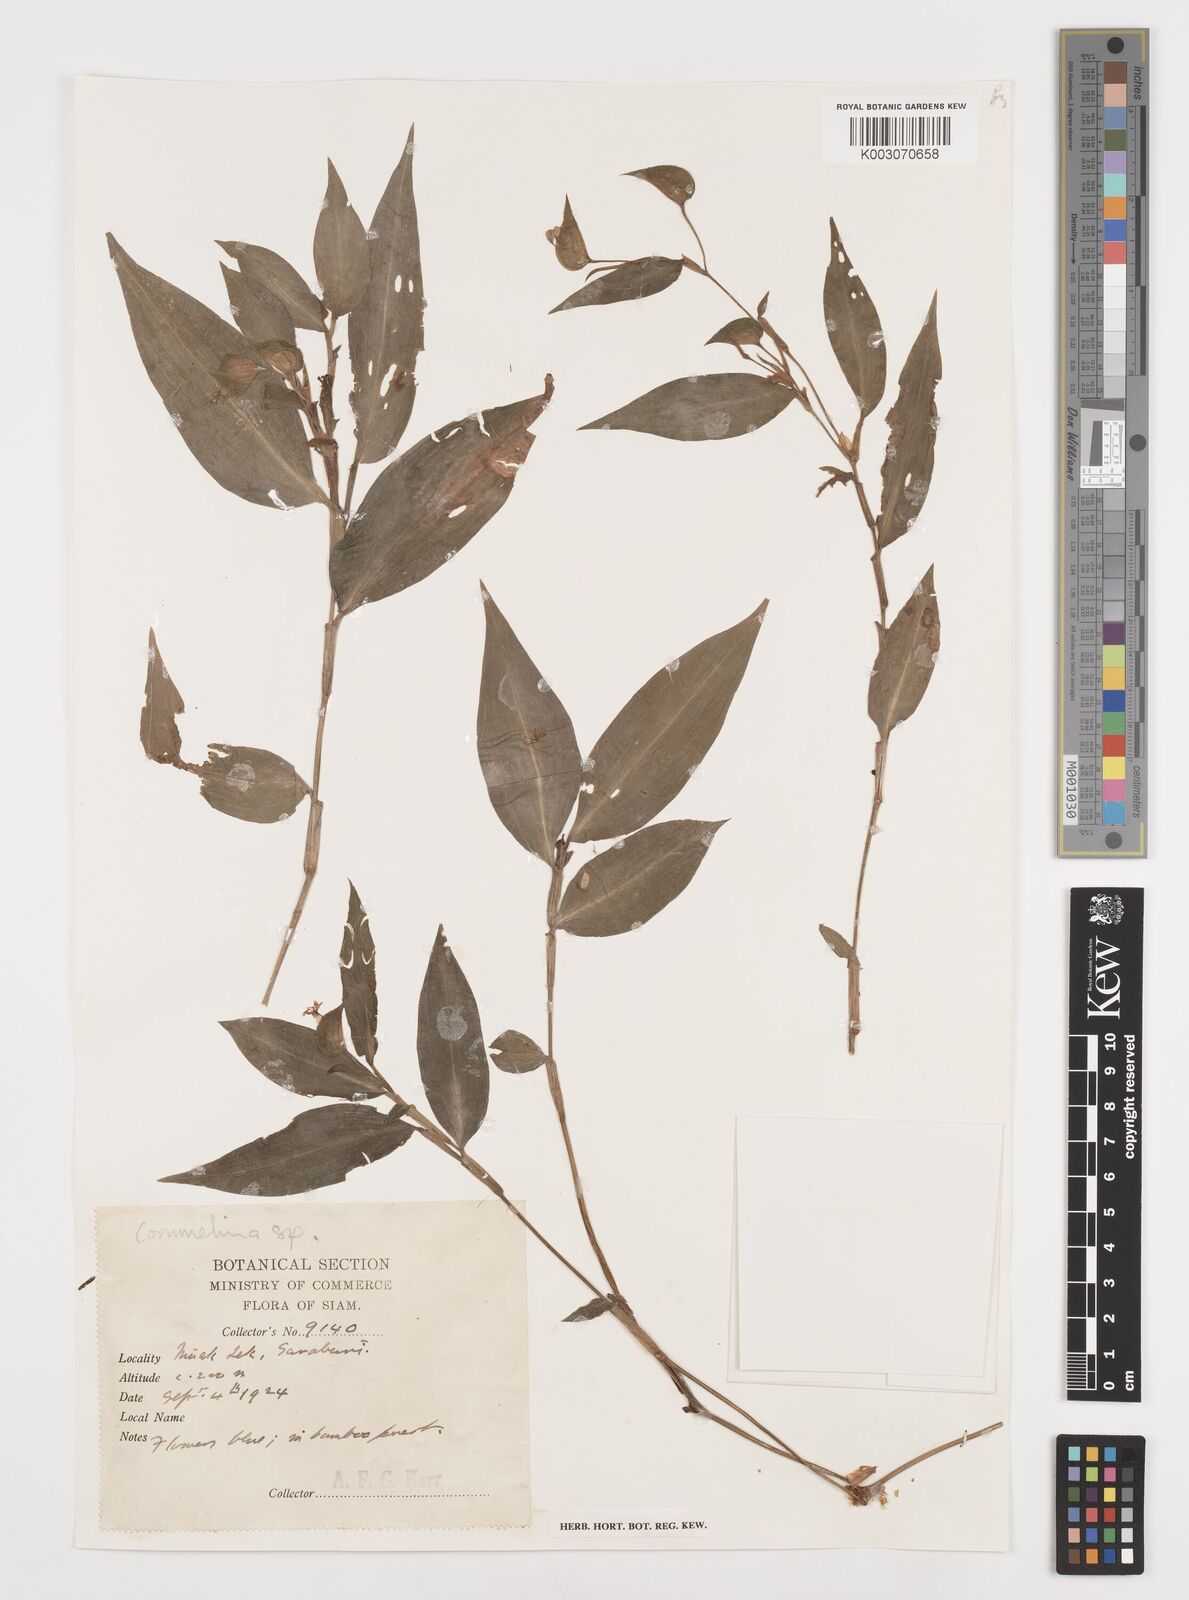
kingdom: Plantae
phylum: Tracheophyta
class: Liliopsida
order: Commelinales
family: Commelinaceae
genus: Commelina
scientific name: Commelina
